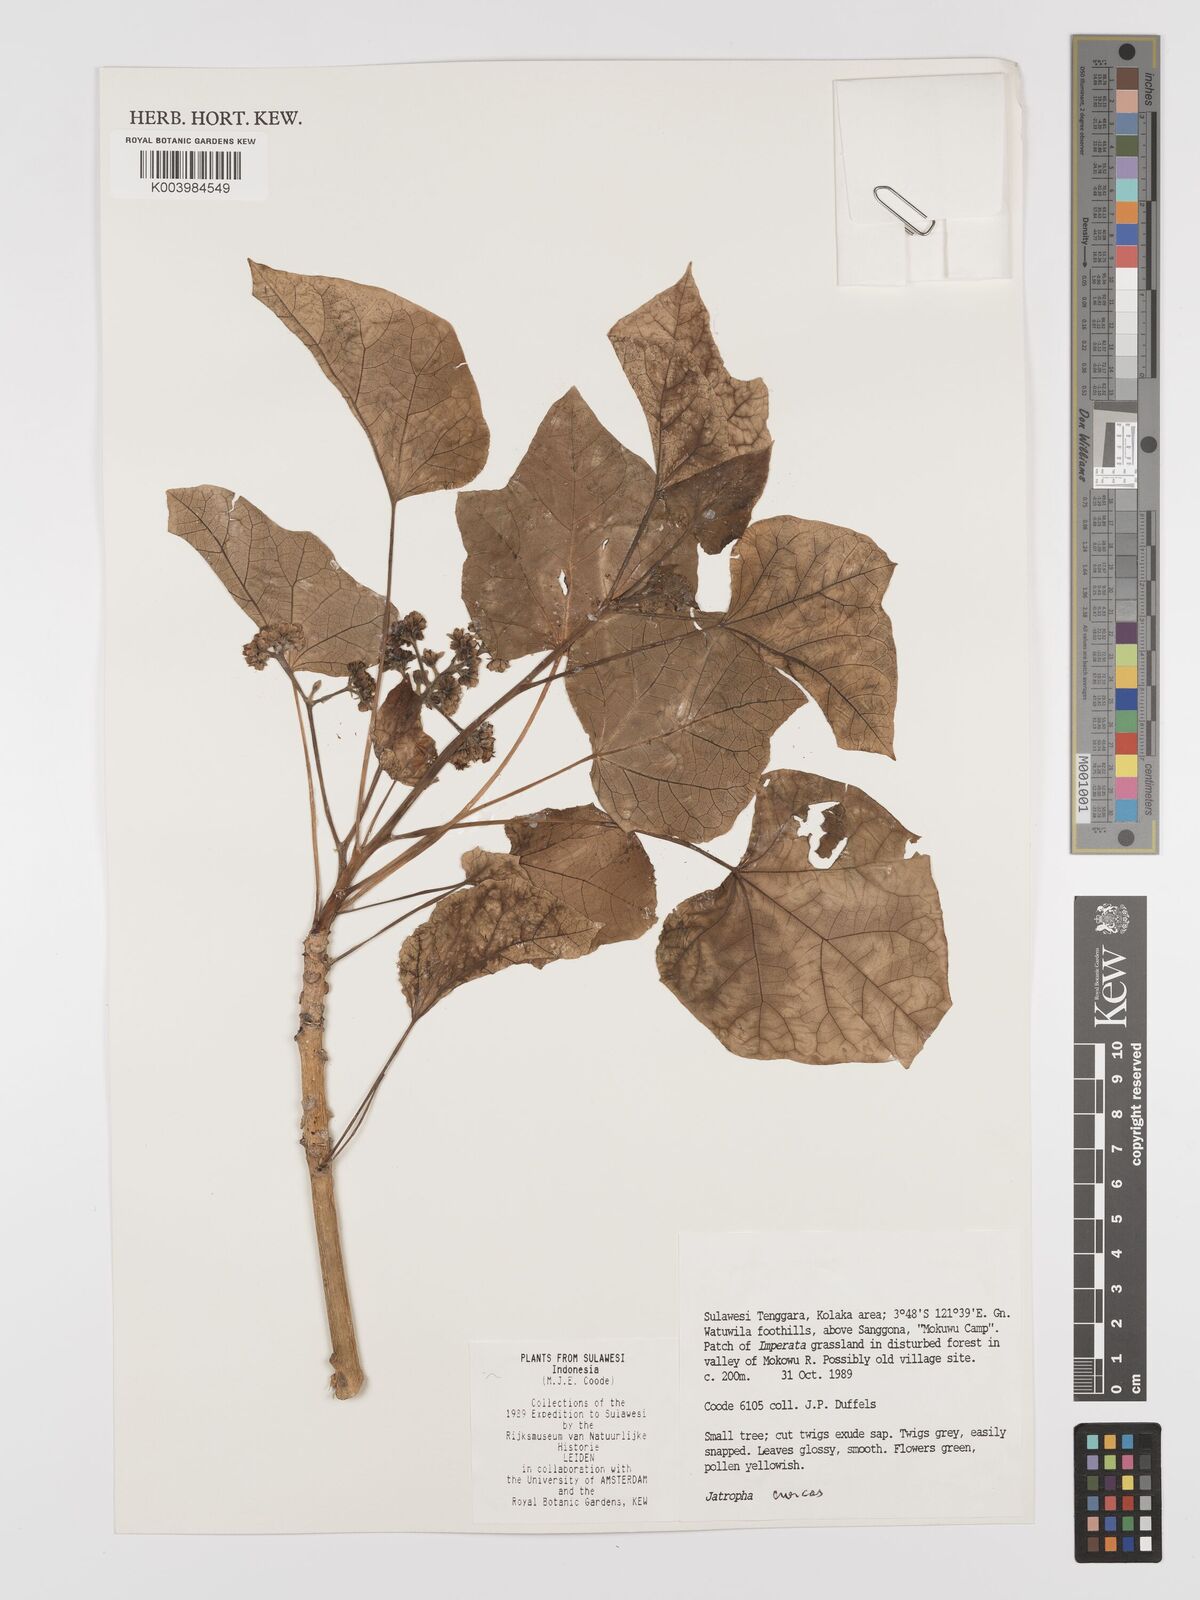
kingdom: Plantae
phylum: Tracheophyta
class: Magnoliopsida
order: Malpighiales
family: Euphorbiaceae
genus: Jatropha
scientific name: Jatropha curcas
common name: Barbados nut
